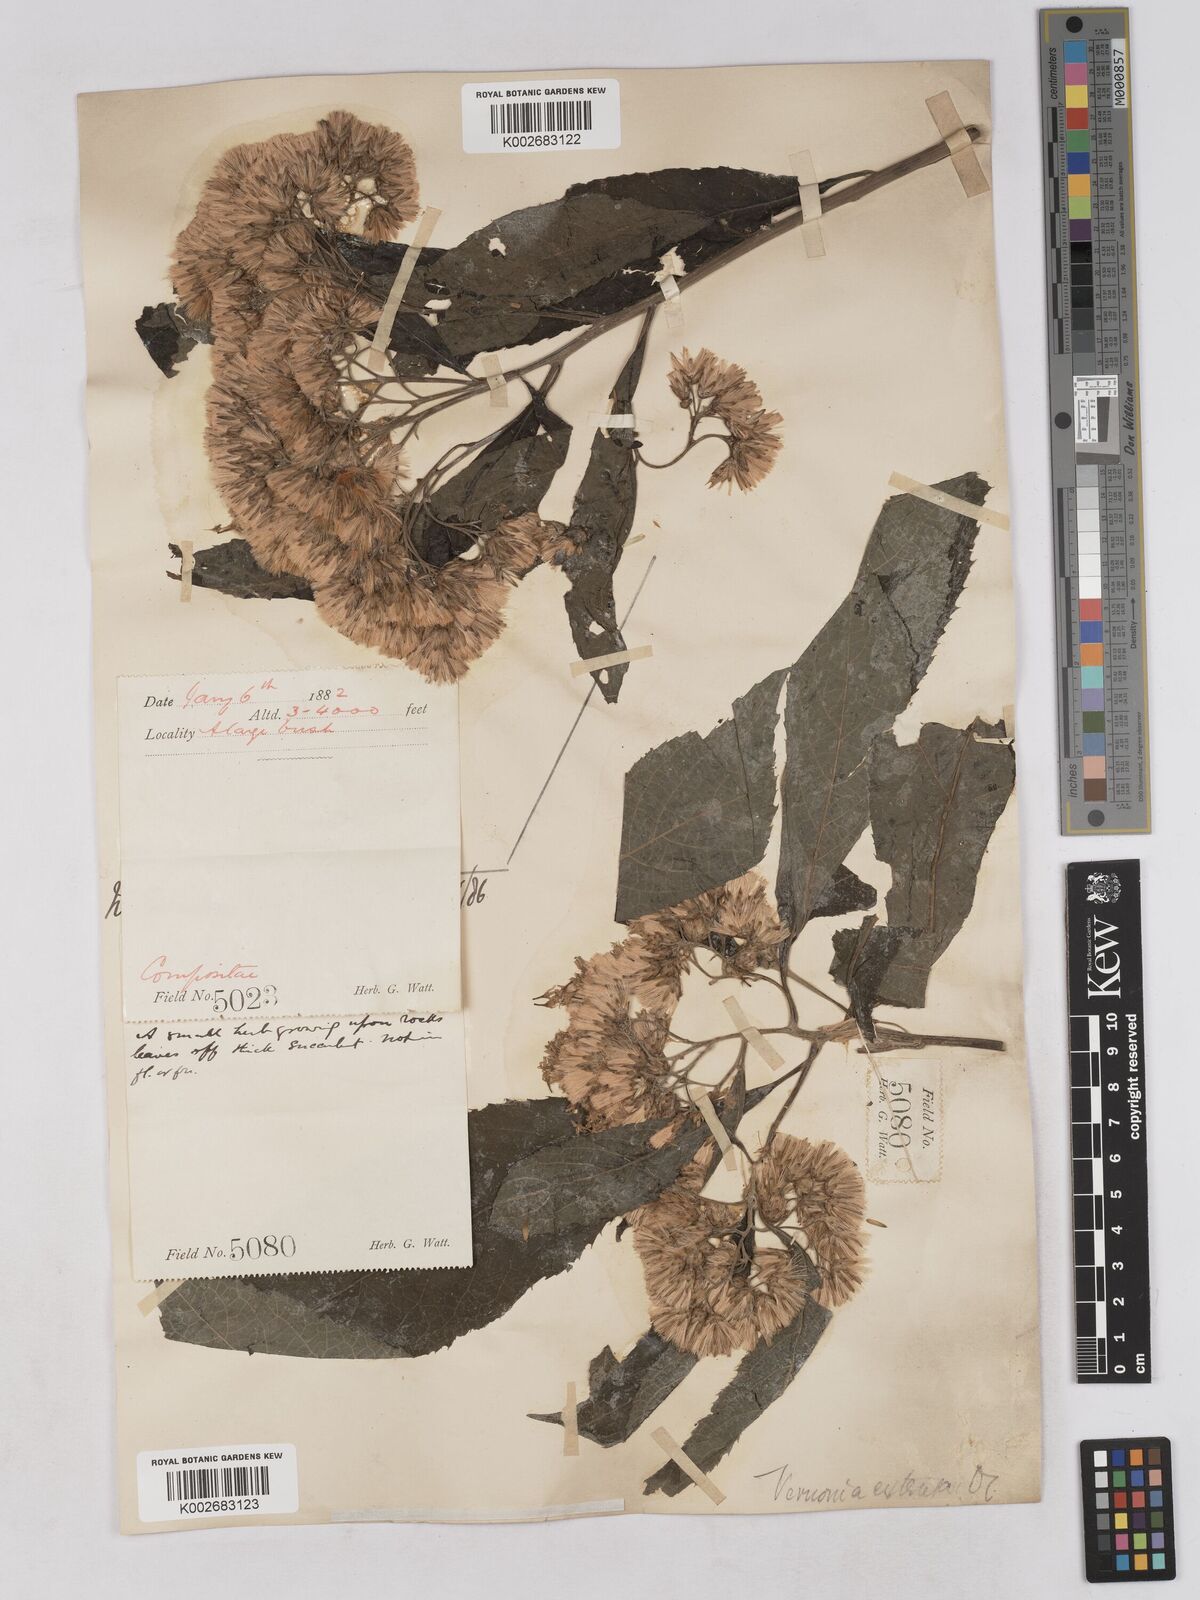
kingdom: Plantae
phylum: Tracheophyta
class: Magnoliopsida
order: Asterales
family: Asteraceae
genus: Gymnanthemum
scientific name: Gymnanthemum extensum
